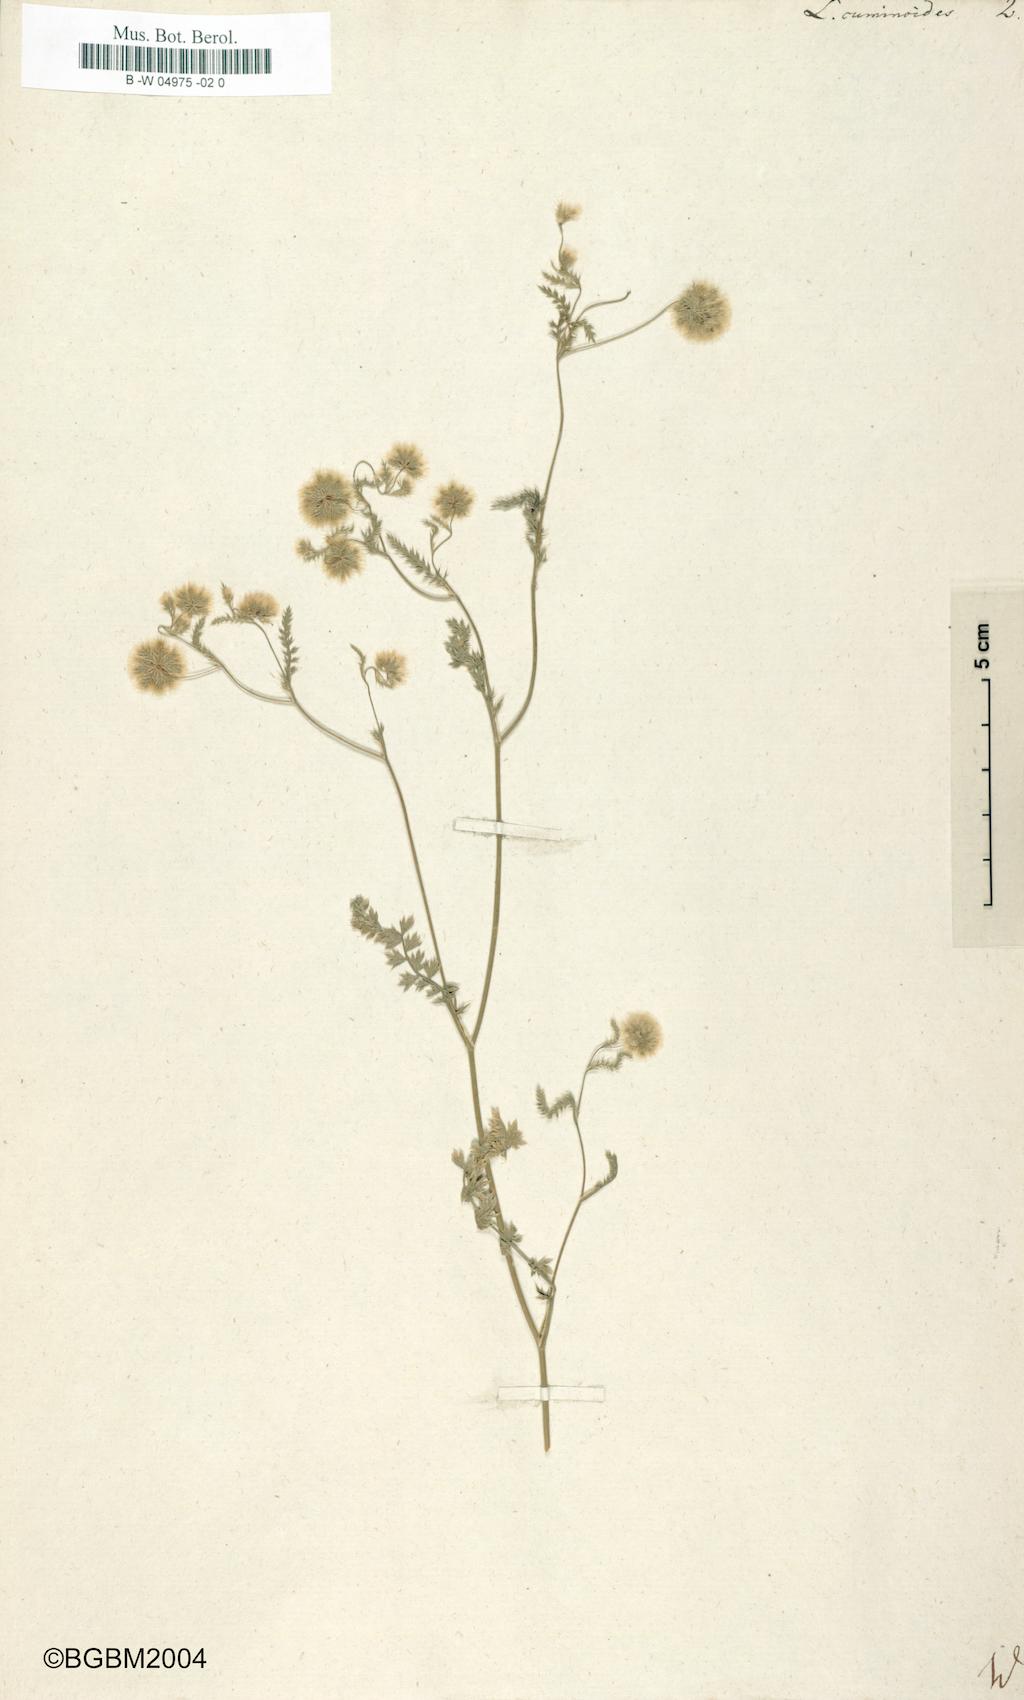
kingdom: Plantae
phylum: Tracheophyta
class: Magnoliopsida
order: Apiales
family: Apiaceae
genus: Lagoecia
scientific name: Lagoecia cuminoides
